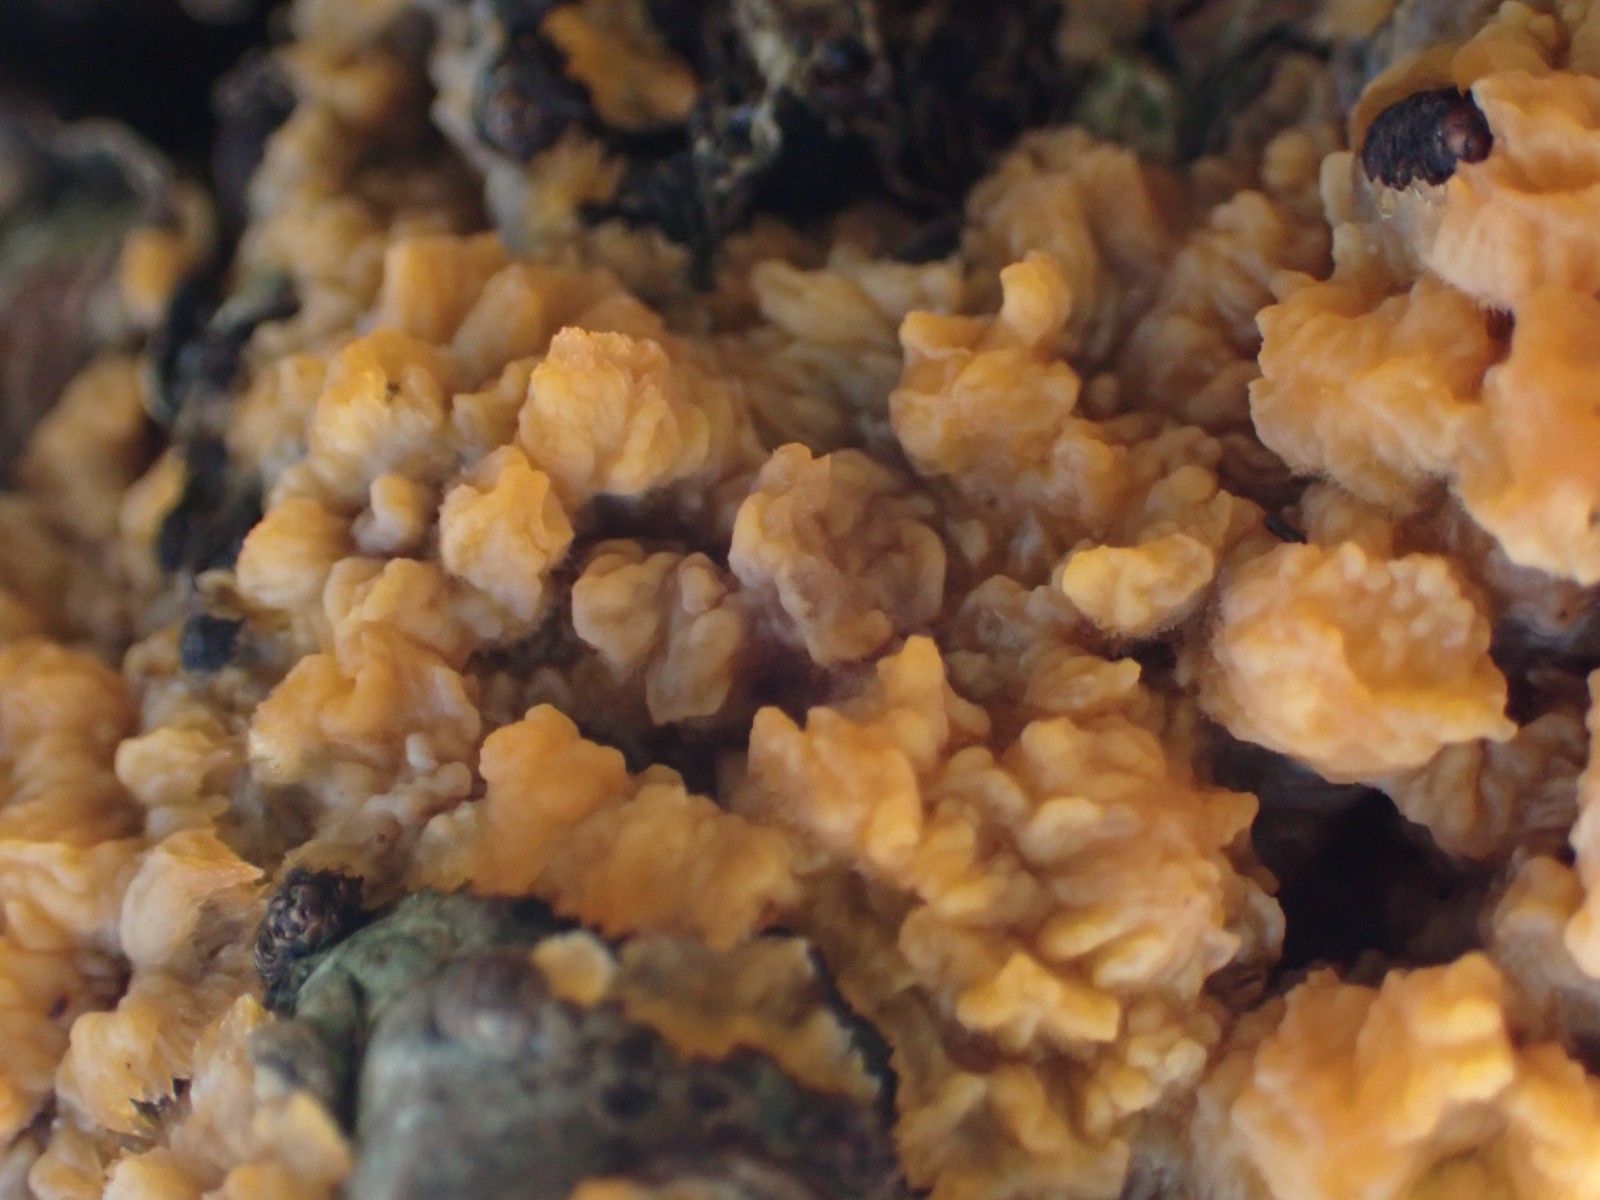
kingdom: Fungi
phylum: Basidiomycota
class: Agaricomycetes
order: Polyporales
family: Meruliaceae
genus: Phlebia
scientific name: Phlebia radiata
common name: stråle-åresvamp
